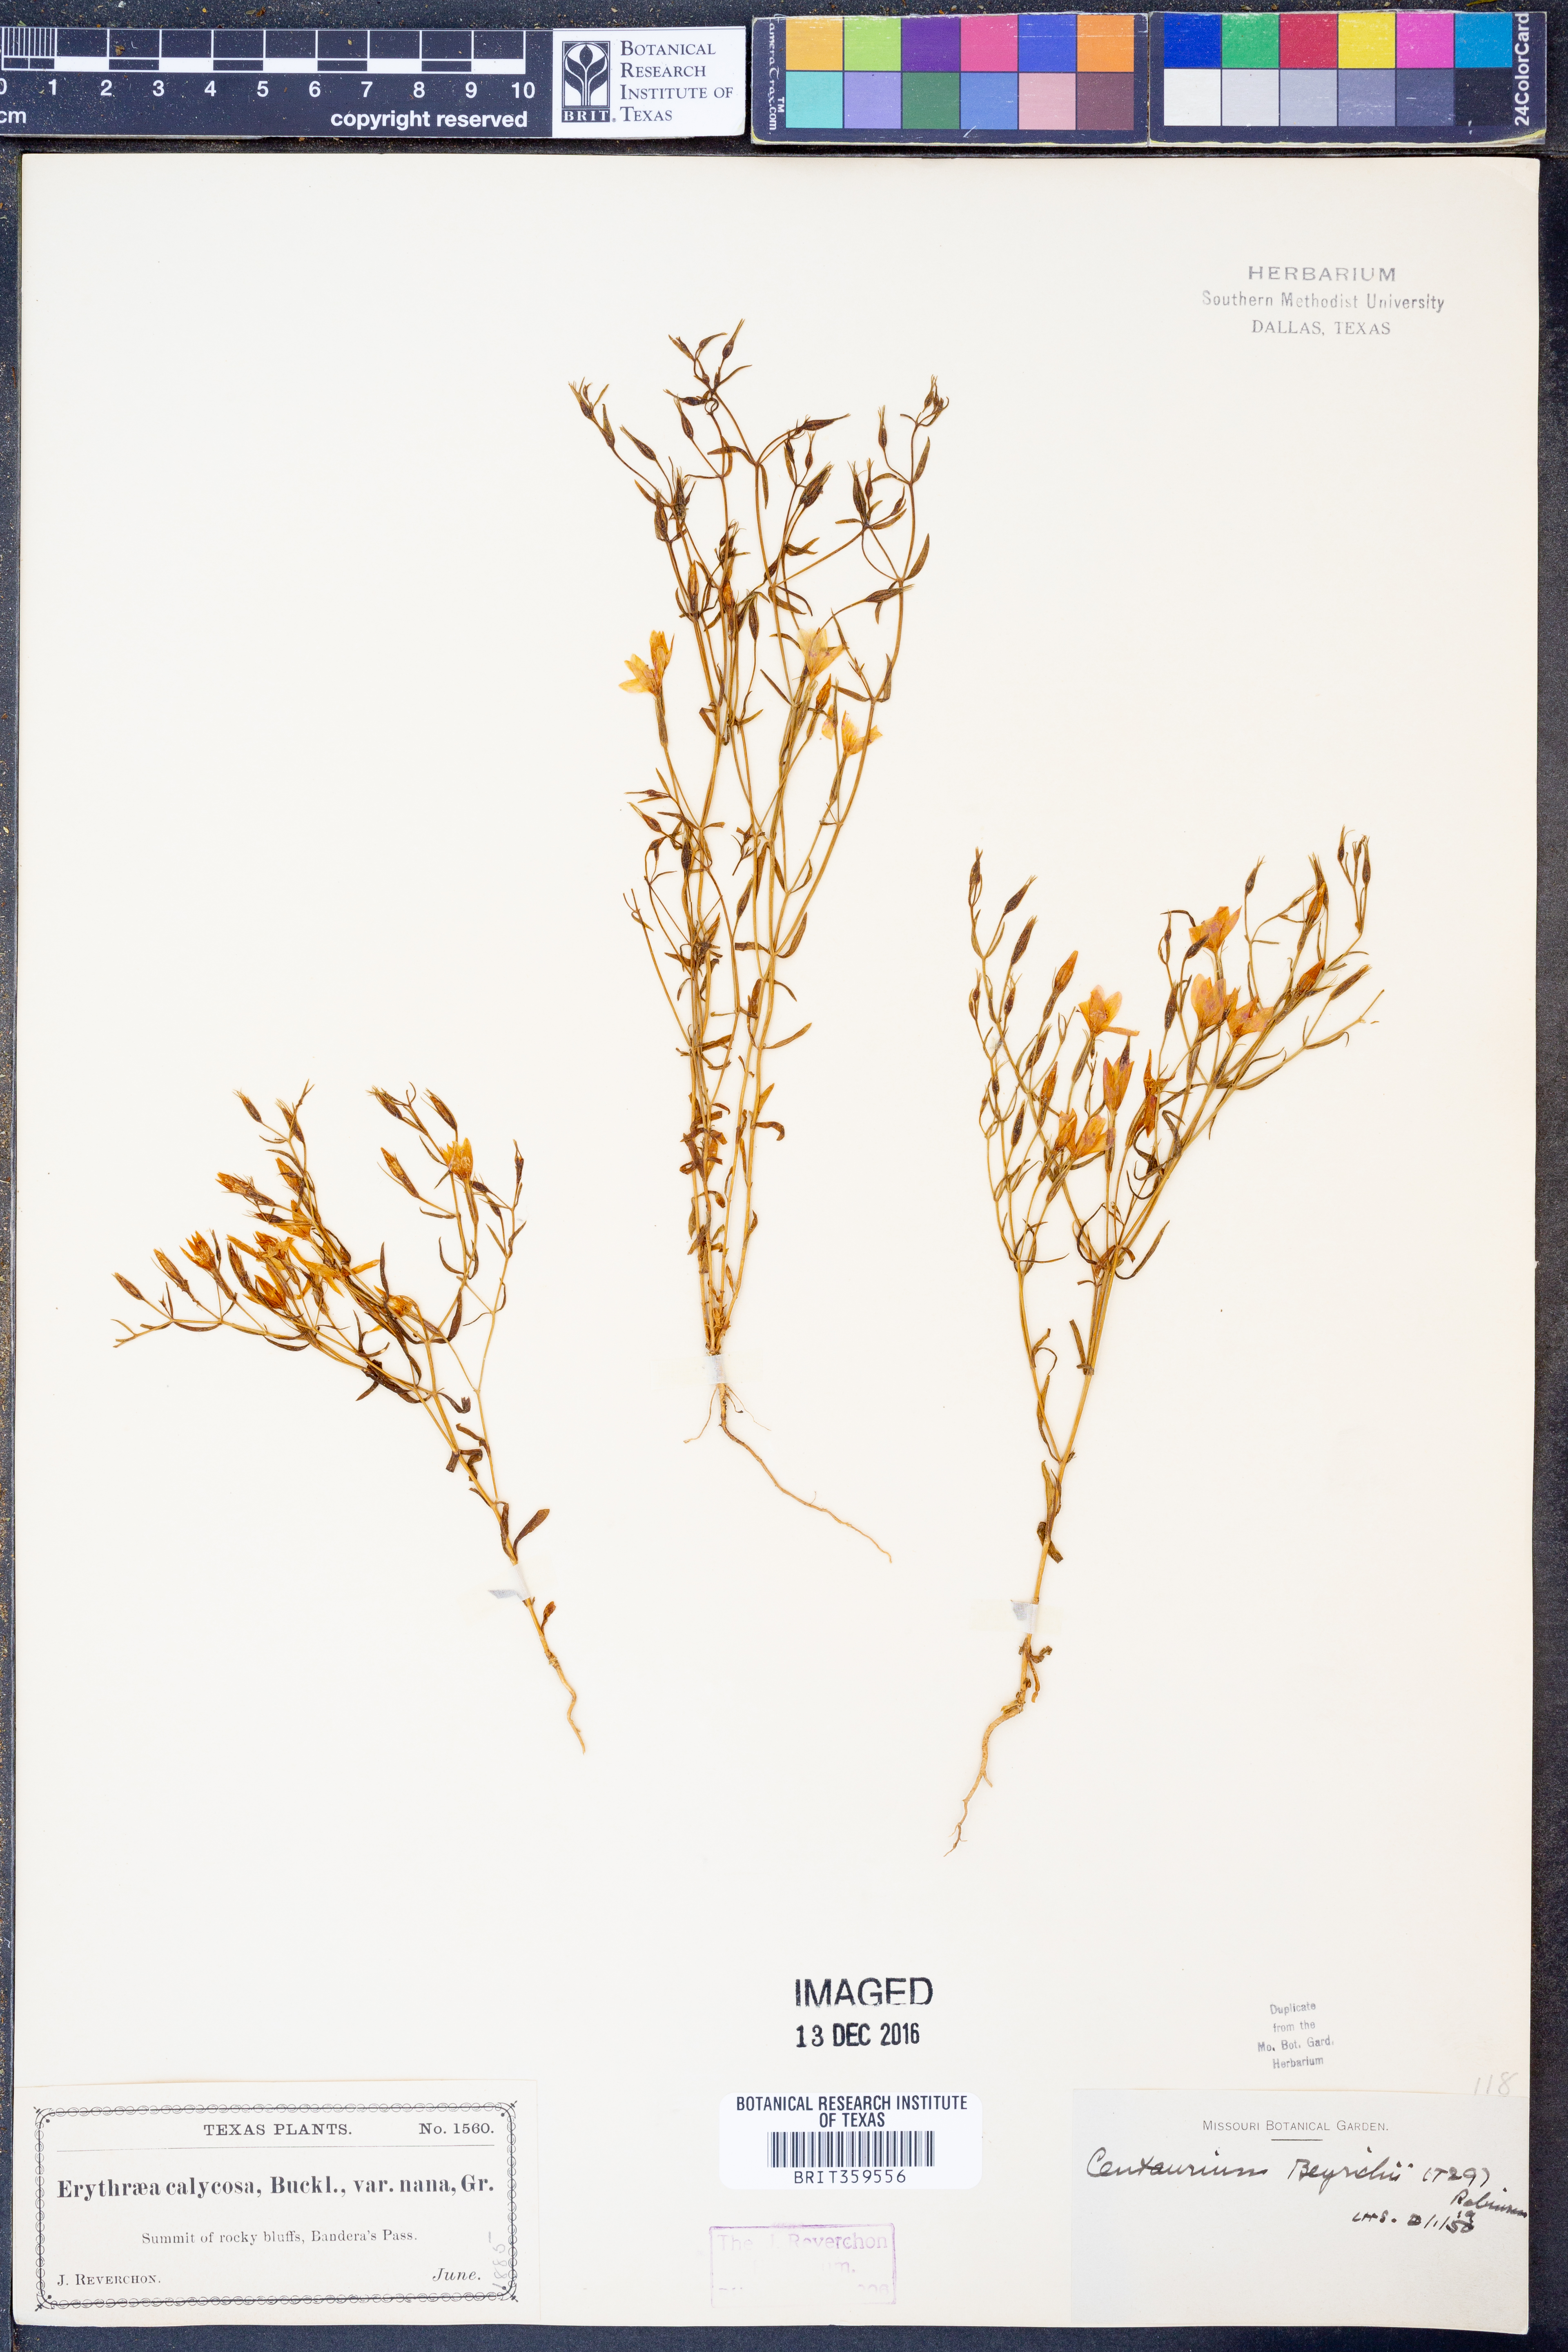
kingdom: Plantae
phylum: Tracheophyta
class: Magnoliopsida
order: Gentianales
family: Gentianaceae
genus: Zeltnera
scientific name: Zeltnera beyrichii
